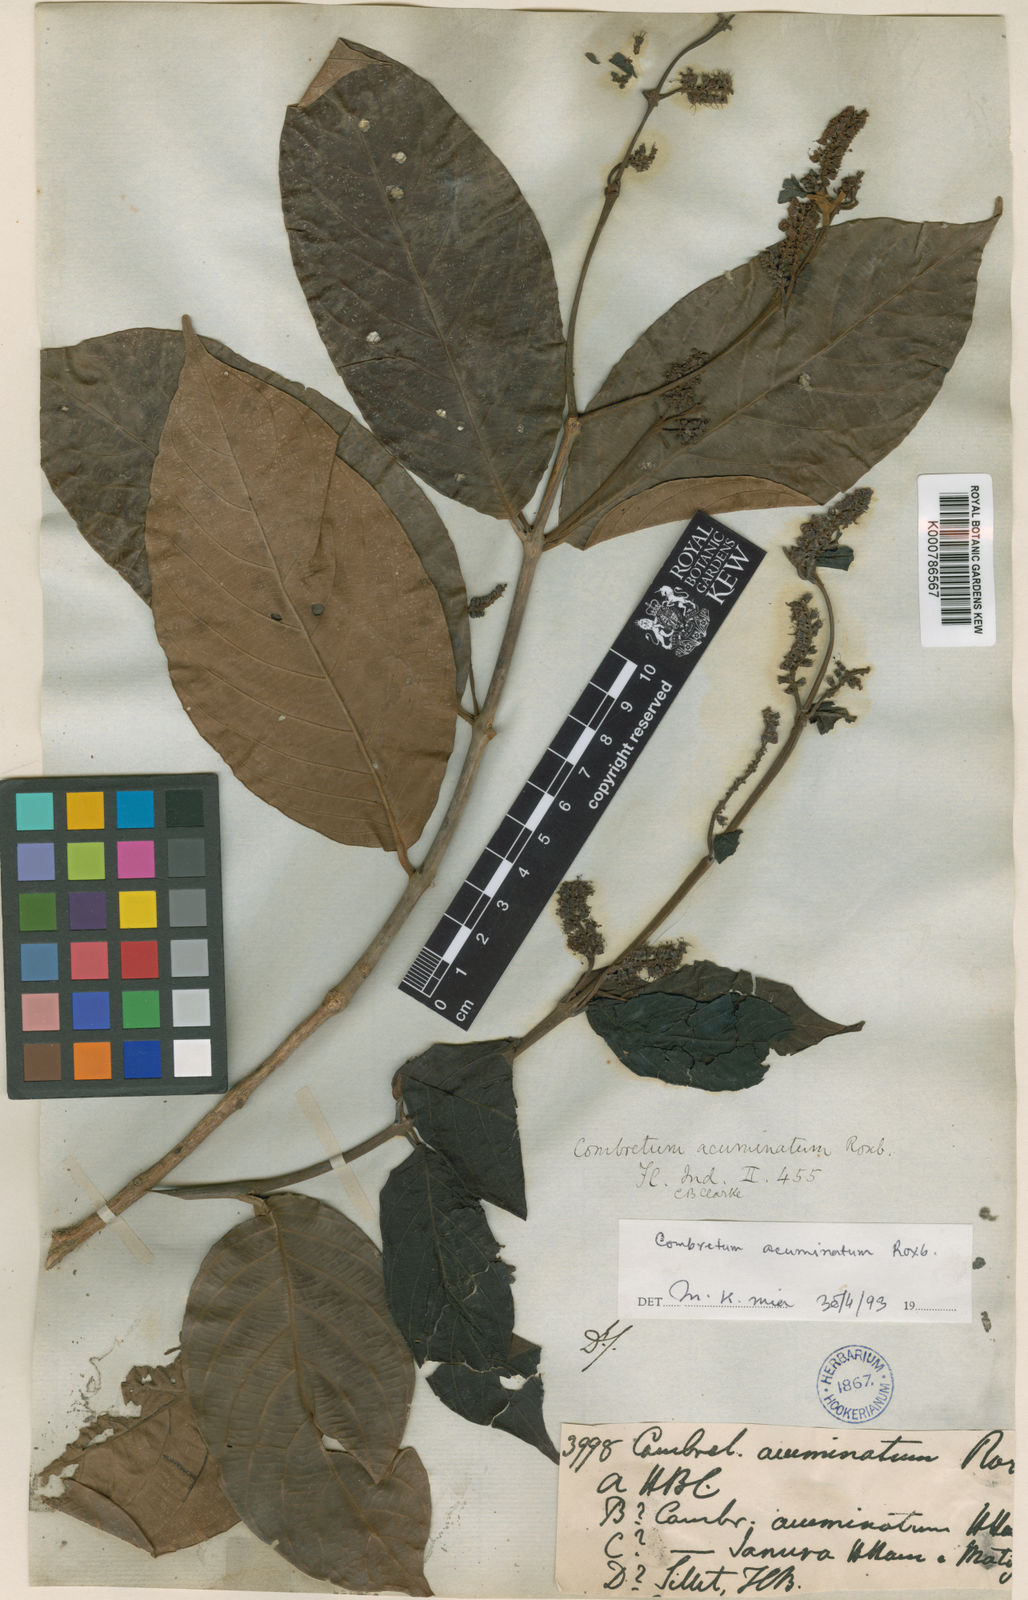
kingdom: Plantae
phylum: Tracheophyta
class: Magnoliopsida
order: Myrtales
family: Combretaceae
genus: Combretum
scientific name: Combretum acuminatum
